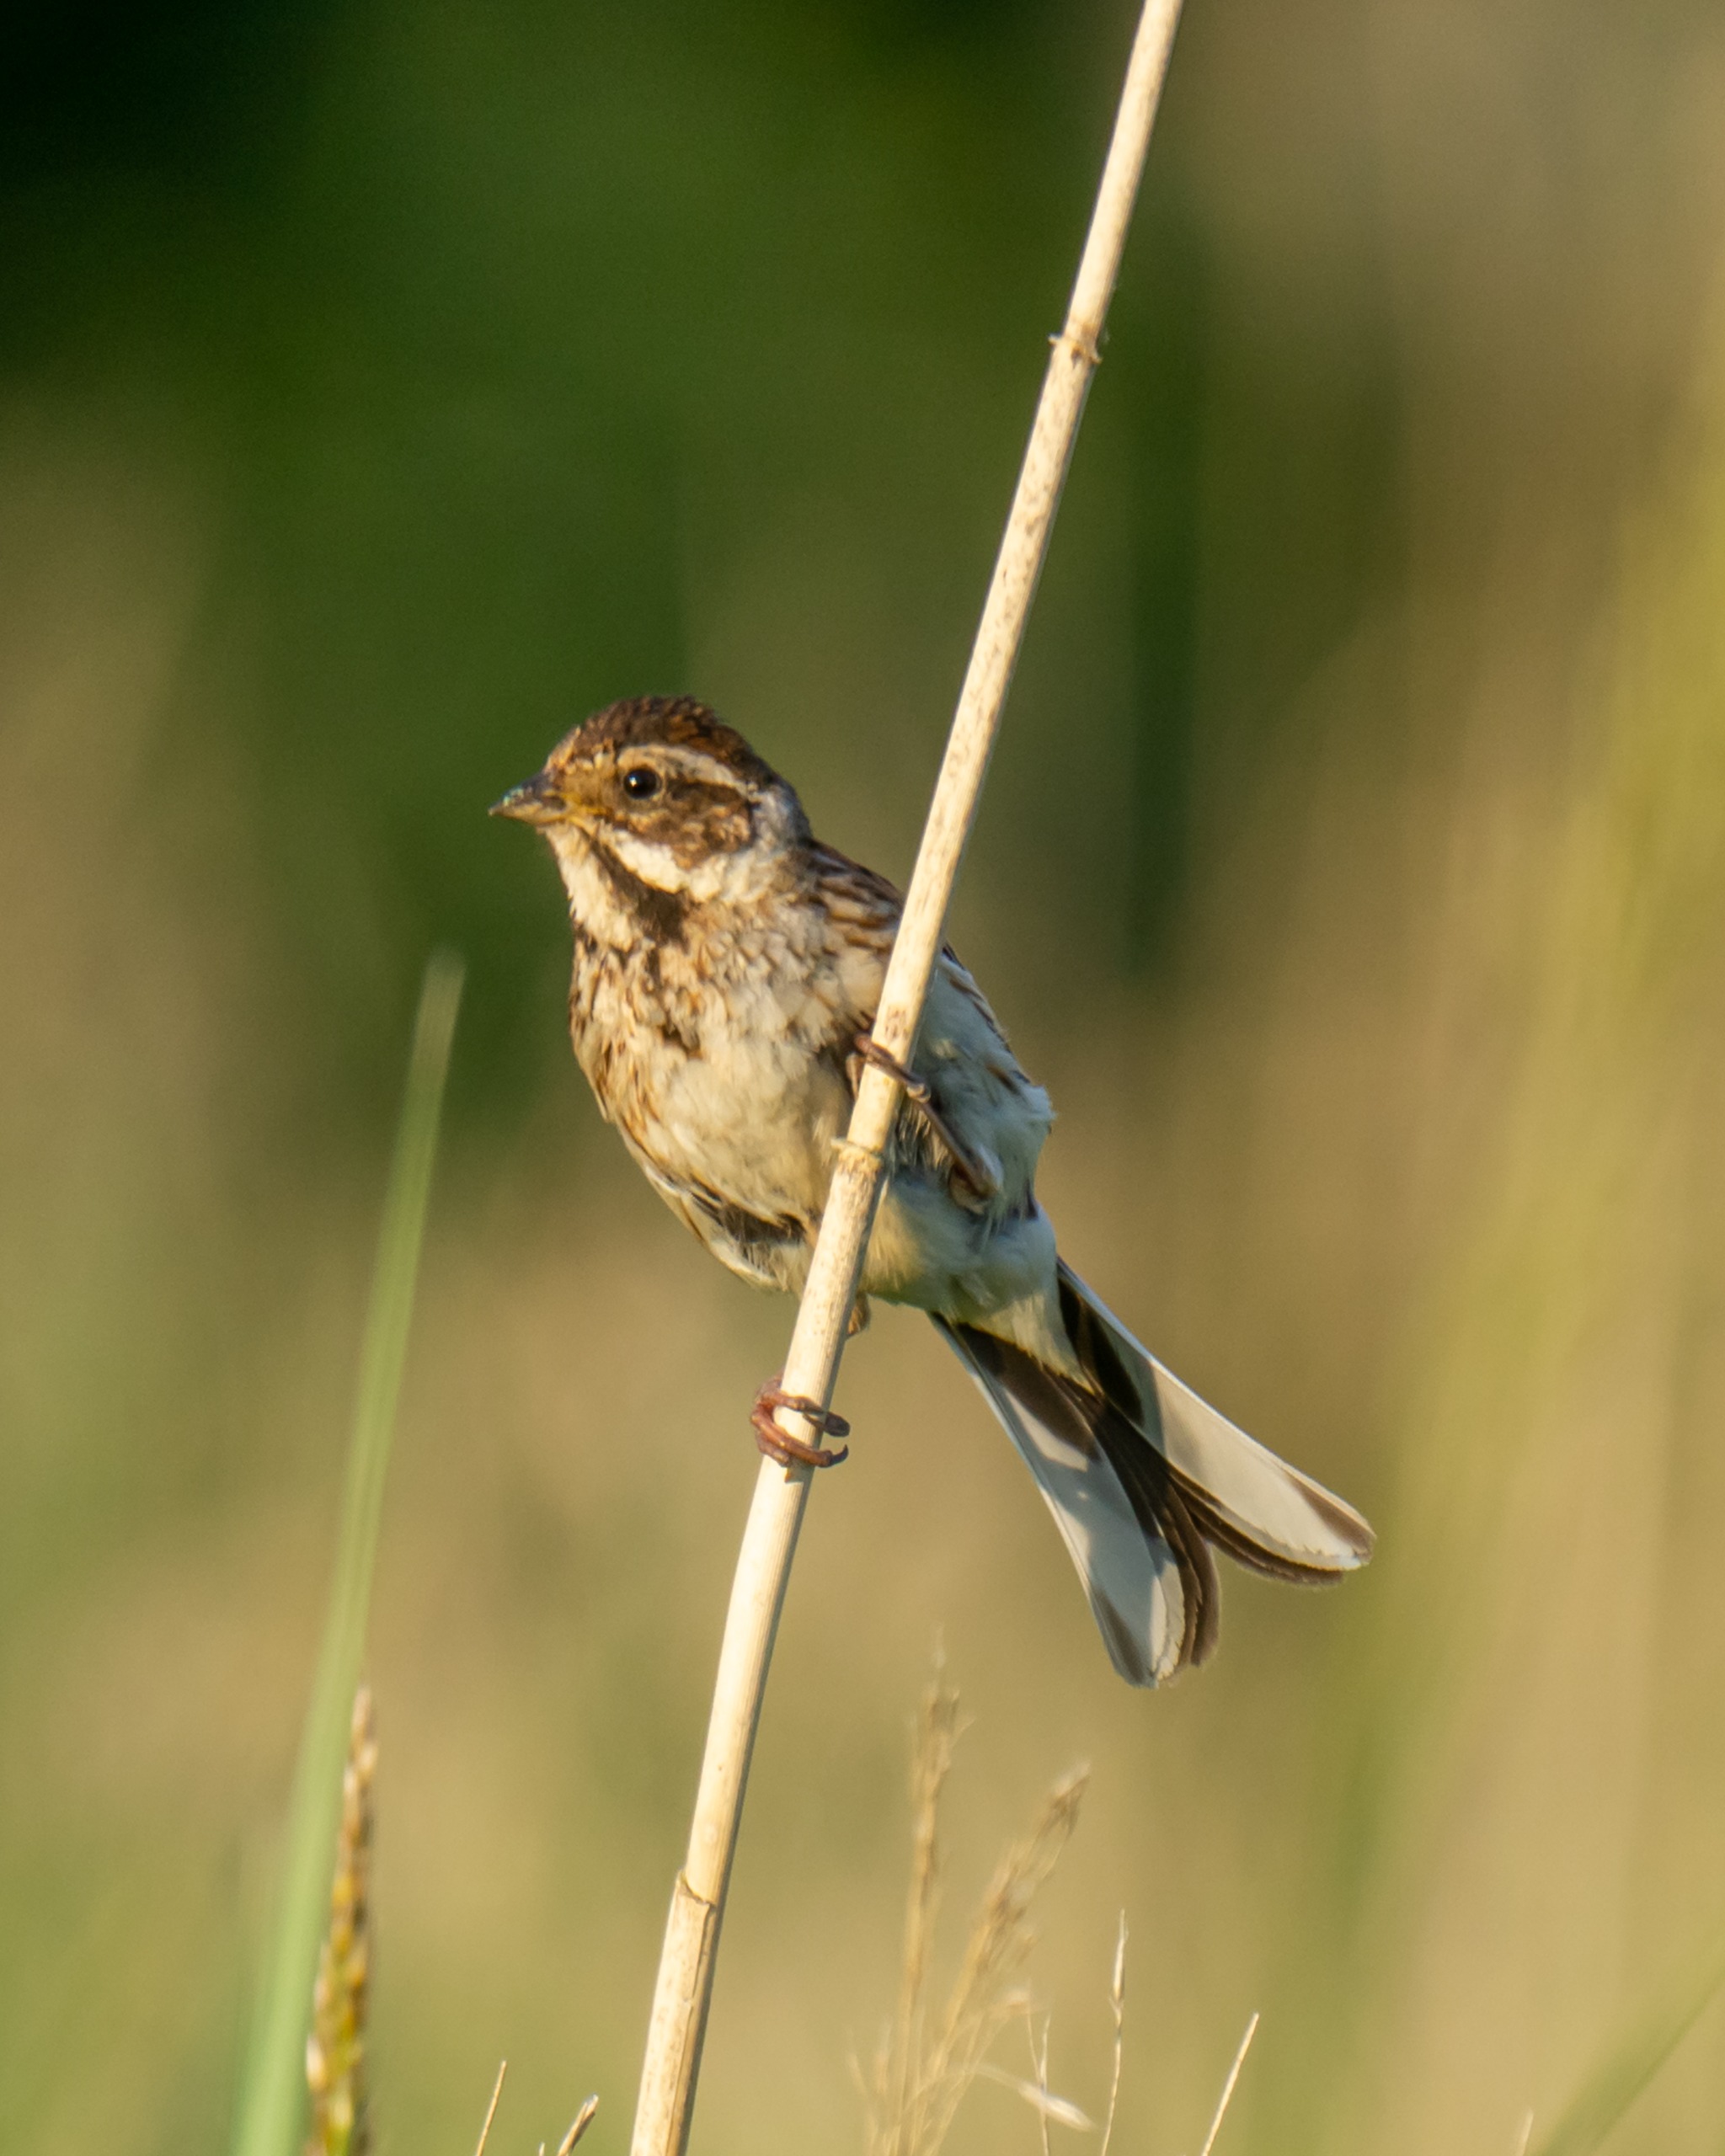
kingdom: Animalia
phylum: Chordata
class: Aves
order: Passeriformes
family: Emberizidae
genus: Emberiza
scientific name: Emberiza schoeniclus
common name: Rørspurv
